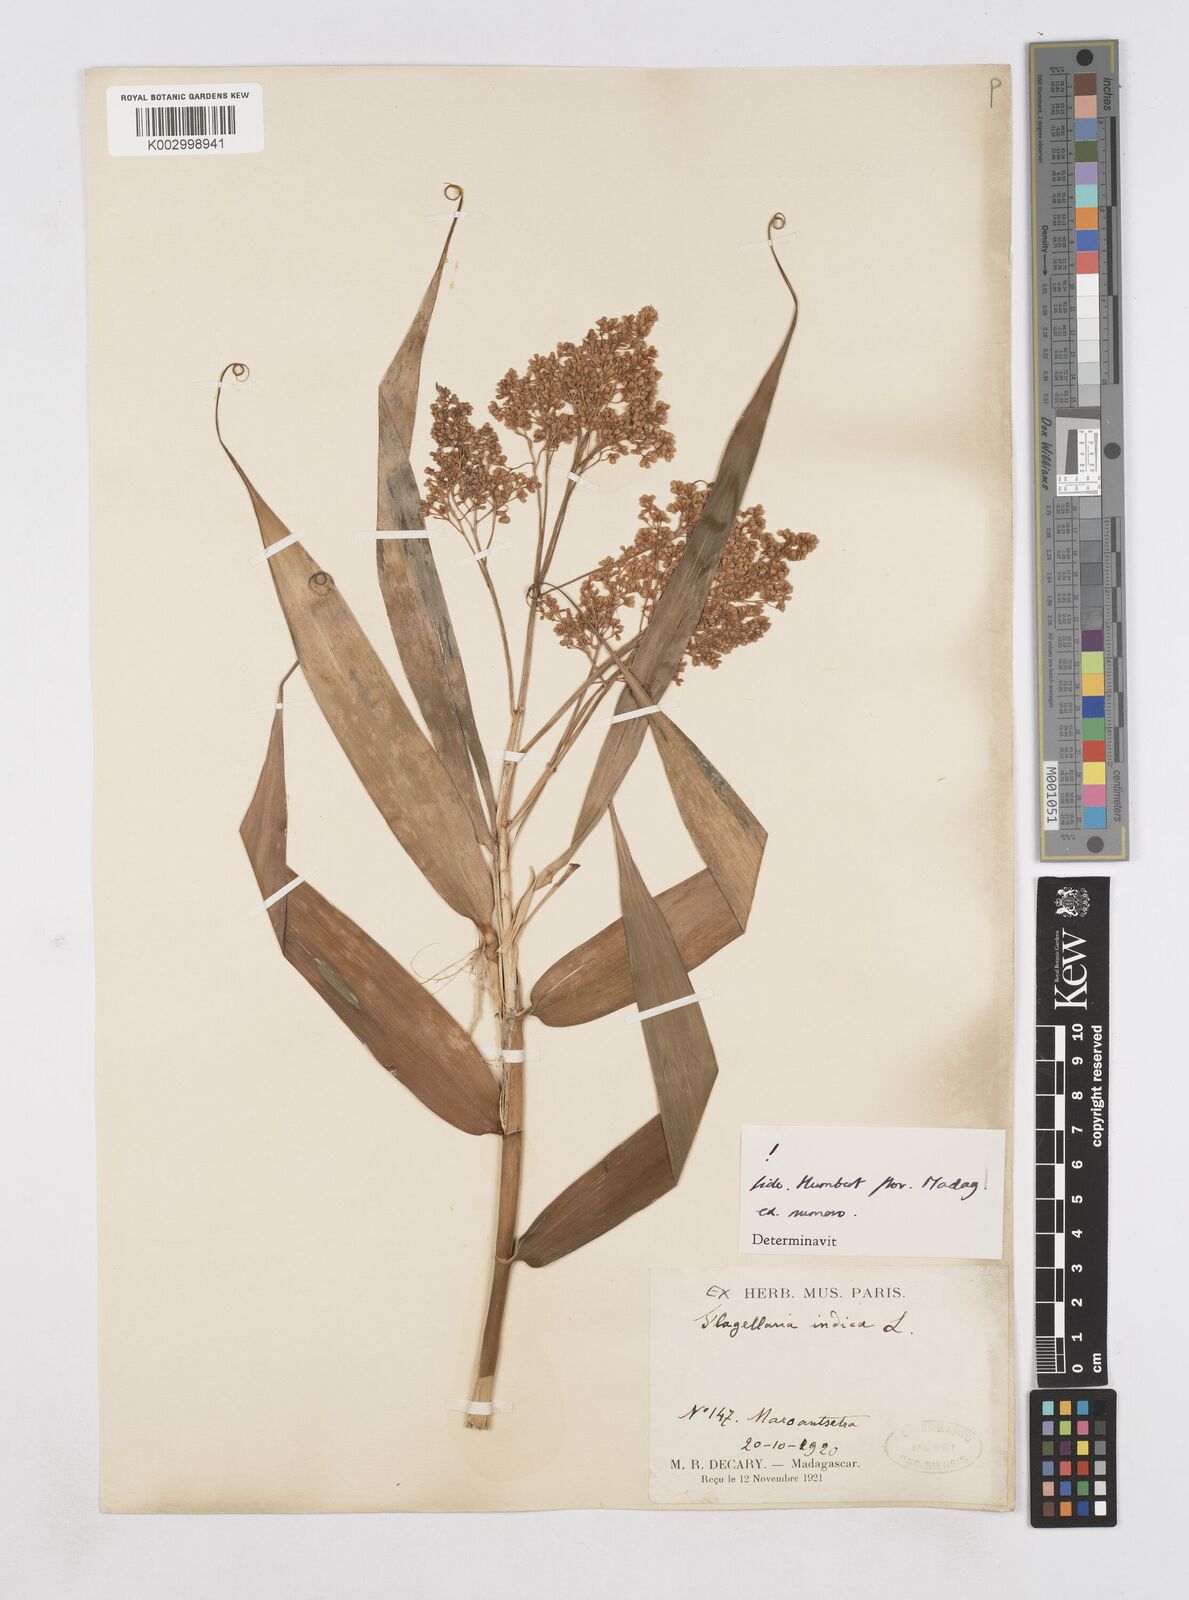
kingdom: Plantae
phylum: Tracheophyta
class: Liliopsida
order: Poales
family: Flagellariaceae
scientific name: Flagellariaceae
